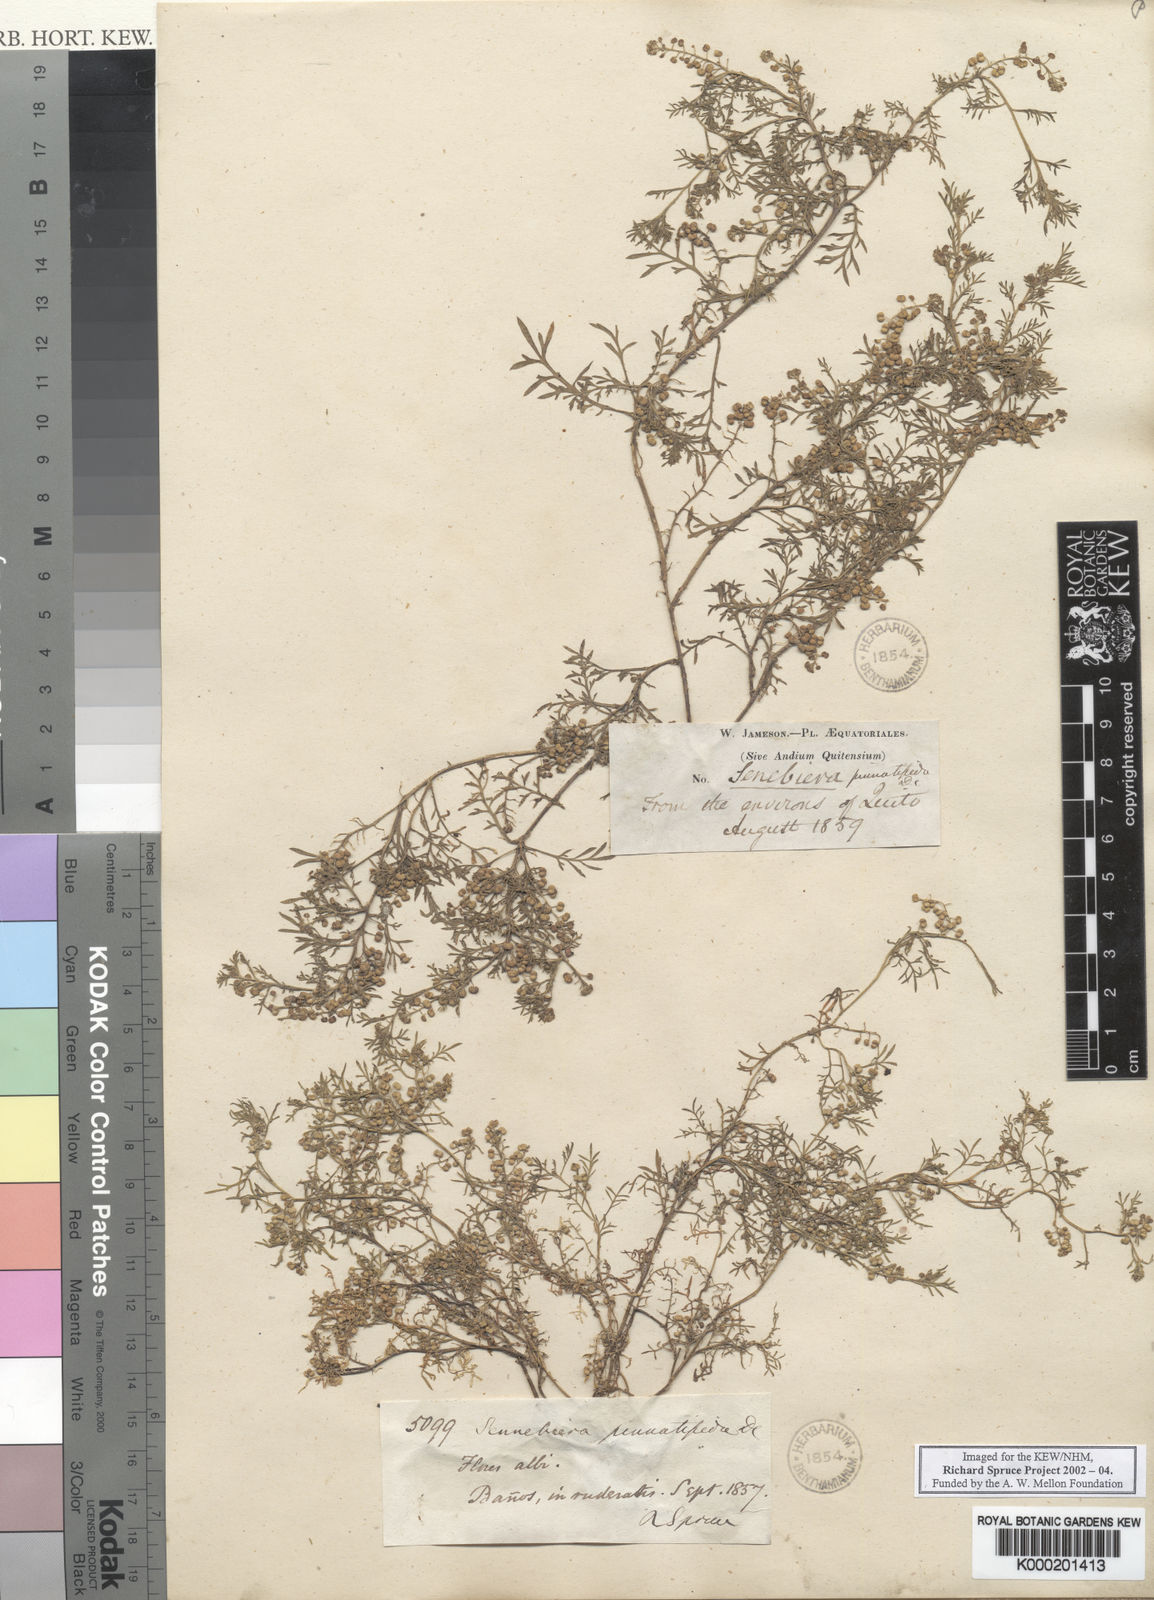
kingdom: Plantae
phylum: Tracheophyta
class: Magnoliopsida
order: Brassicales
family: Brassicaceae
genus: Lepidium
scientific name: Lepidium didymum
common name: Lesser swinecress
